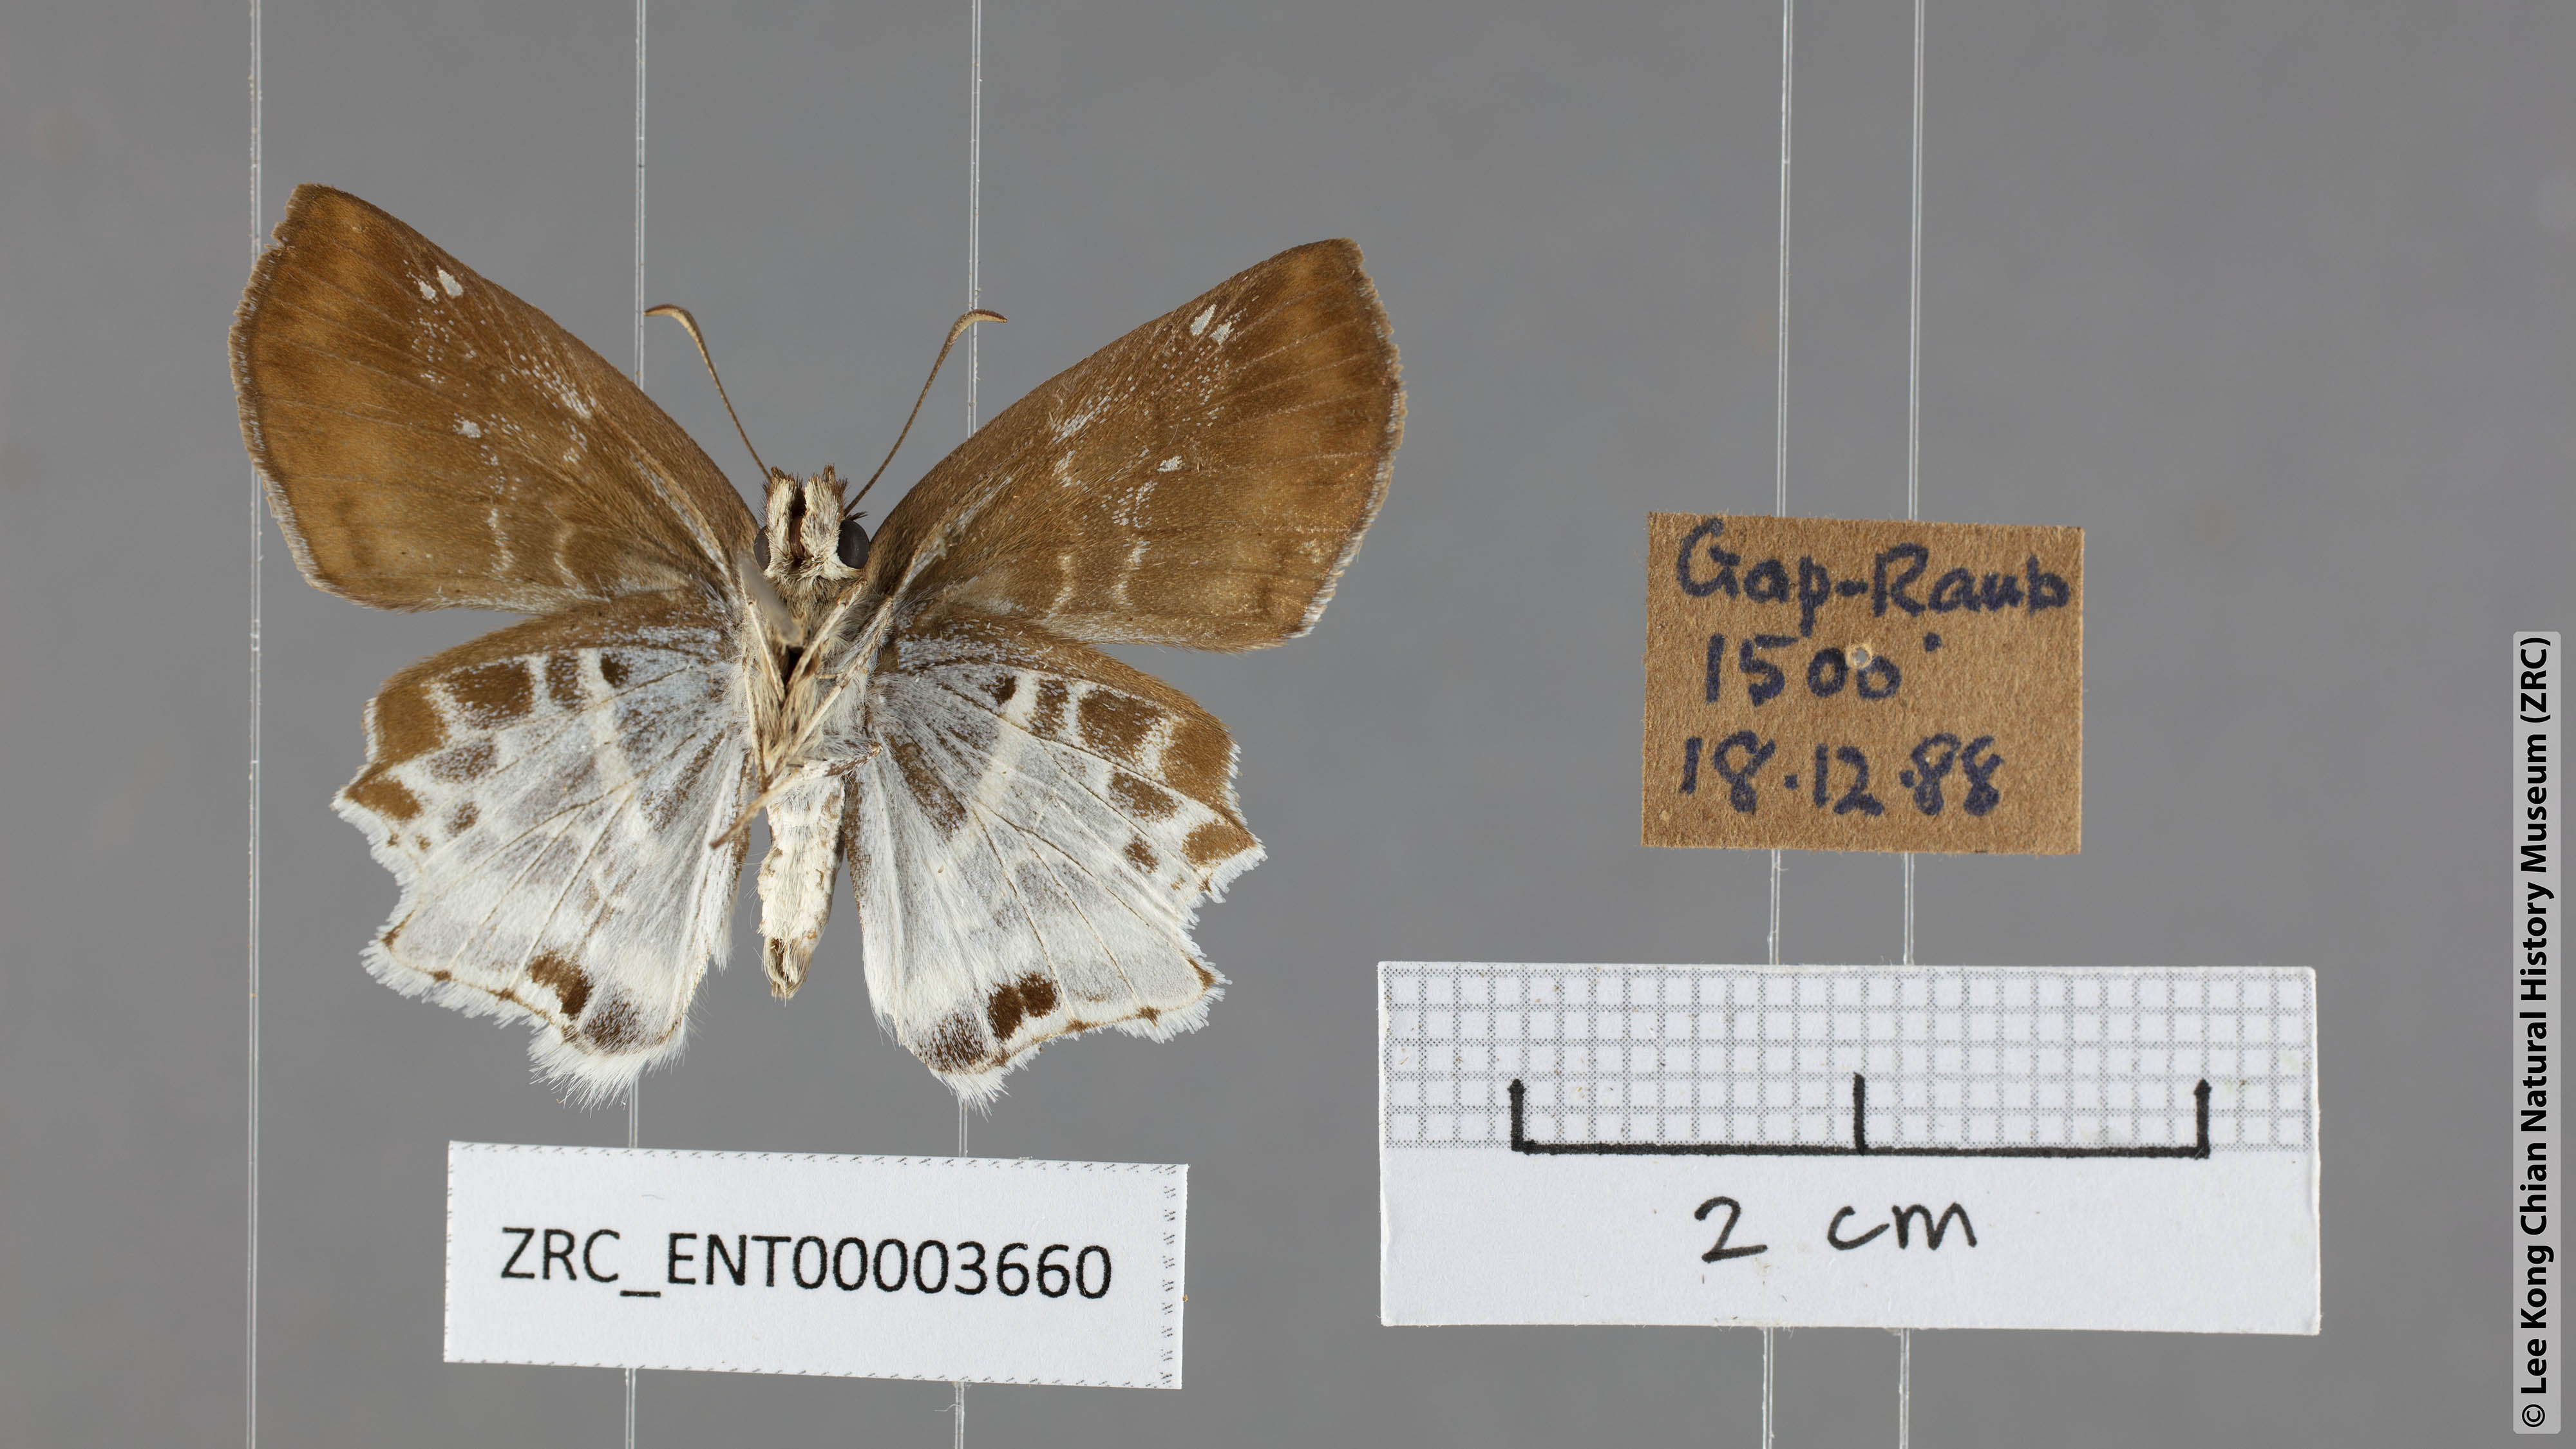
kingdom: Animalia
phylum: Arthropoda
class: Insecta
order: Lepidoptera
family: Hesperiidae
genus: Odontoptilum
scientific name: Odontoptilum pygela
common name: Banded angle
